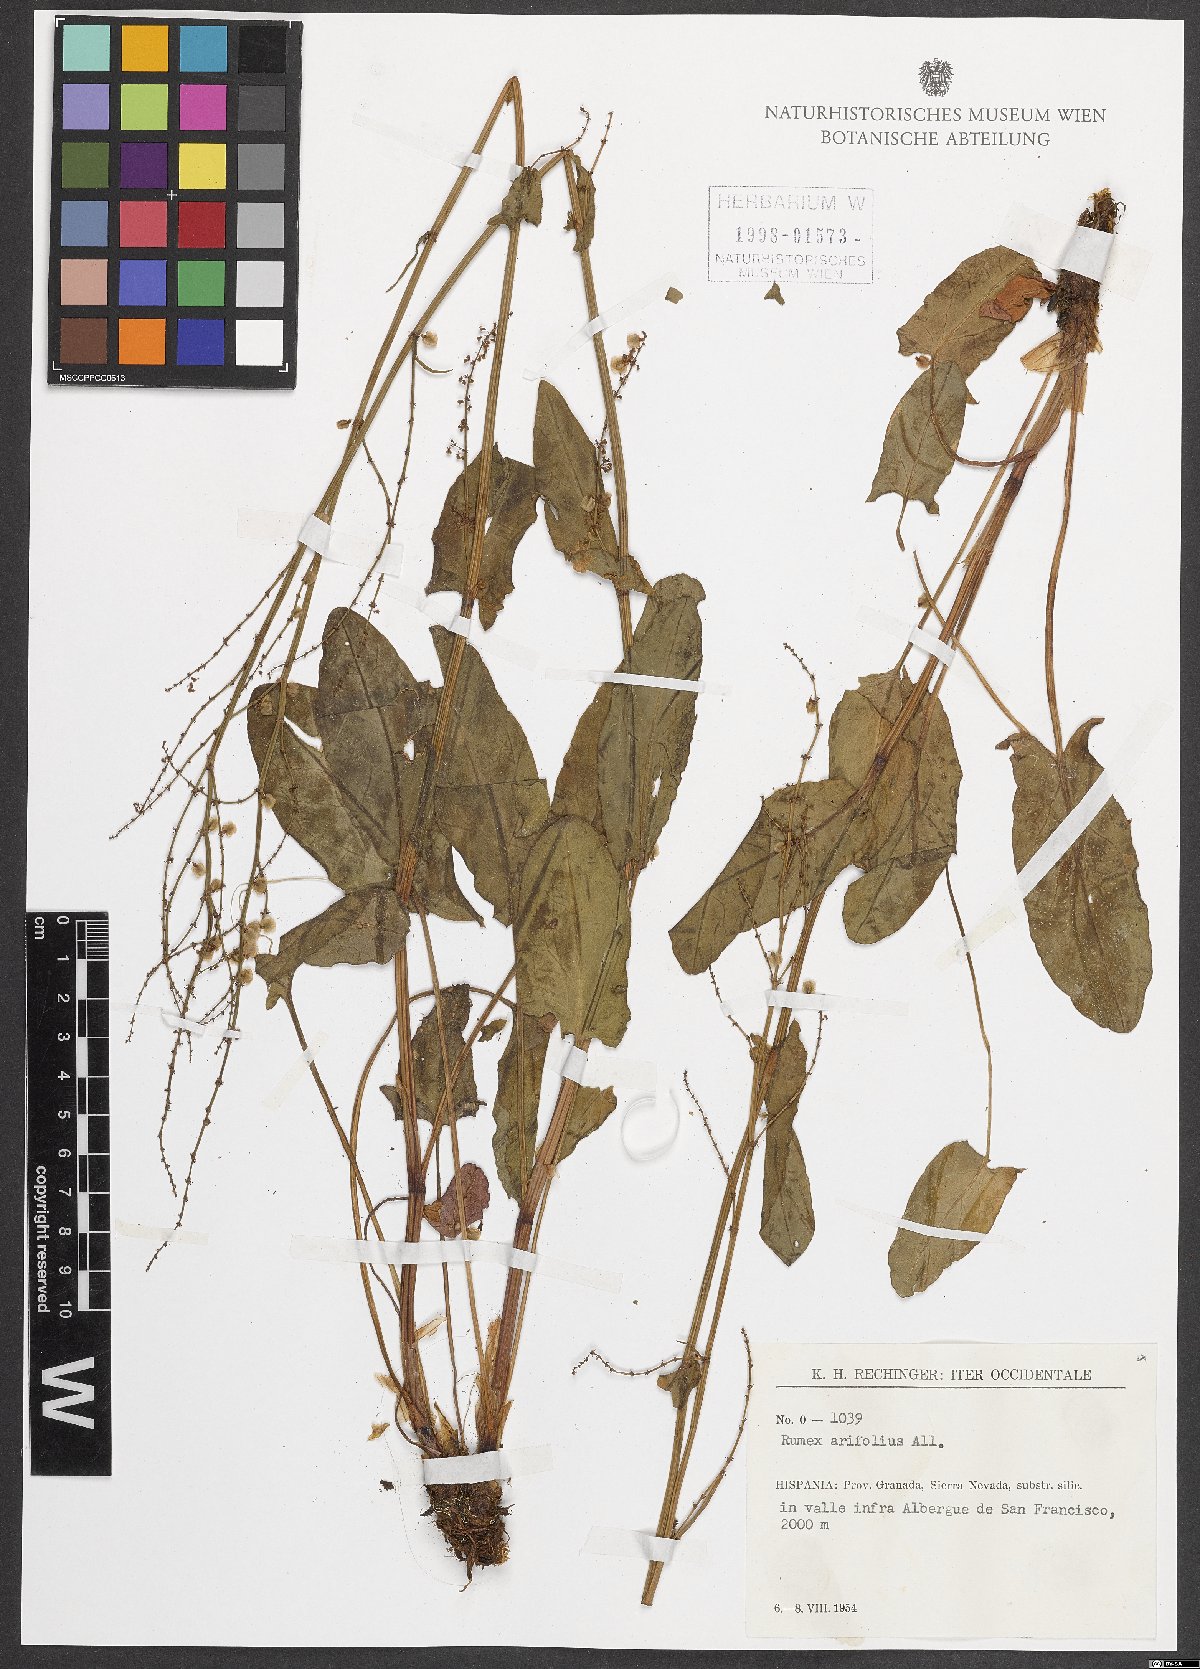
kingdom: Plantae
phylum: Tracheophyta
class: Magnoliopsida
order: Caryophyllales
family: Polygonaceae
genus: Rumex
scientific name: Rumex arifolius
